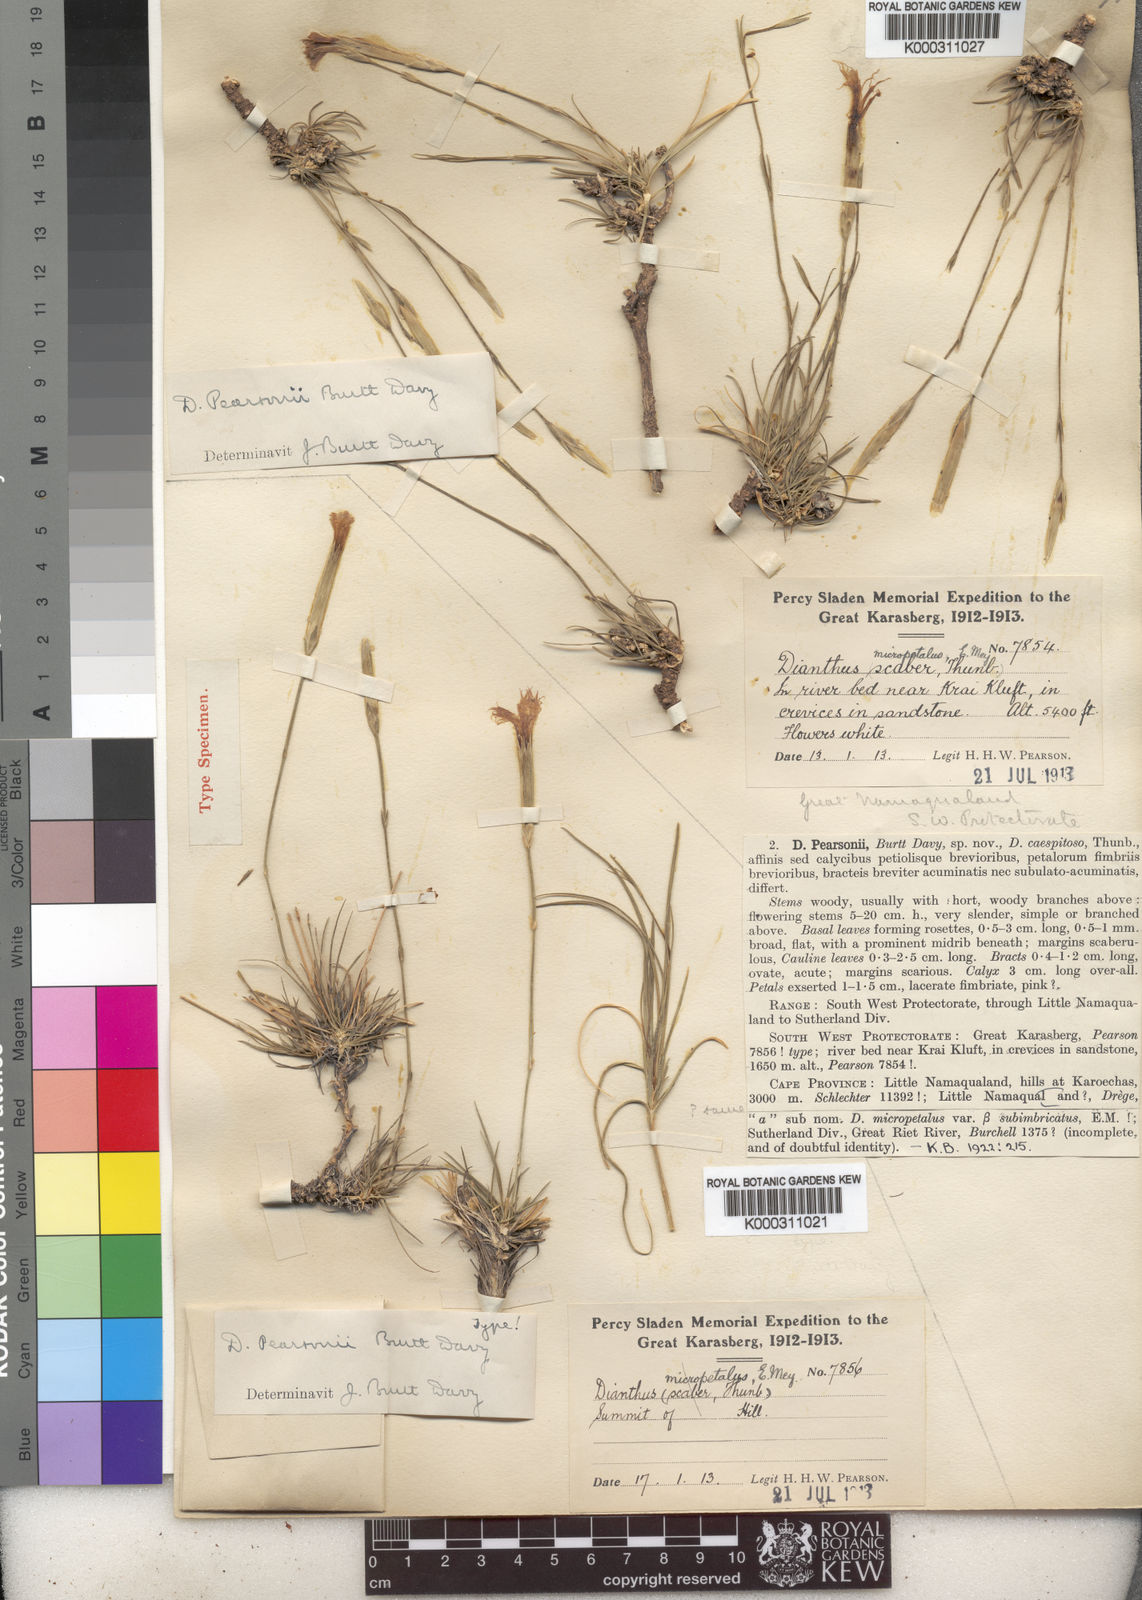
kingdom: Plantae
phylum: Tracheophyta
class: Magnoliopsida
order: Caryophyllales
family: Caryophyllaceae
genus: Dianthus
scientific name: Dianthus namaensis
